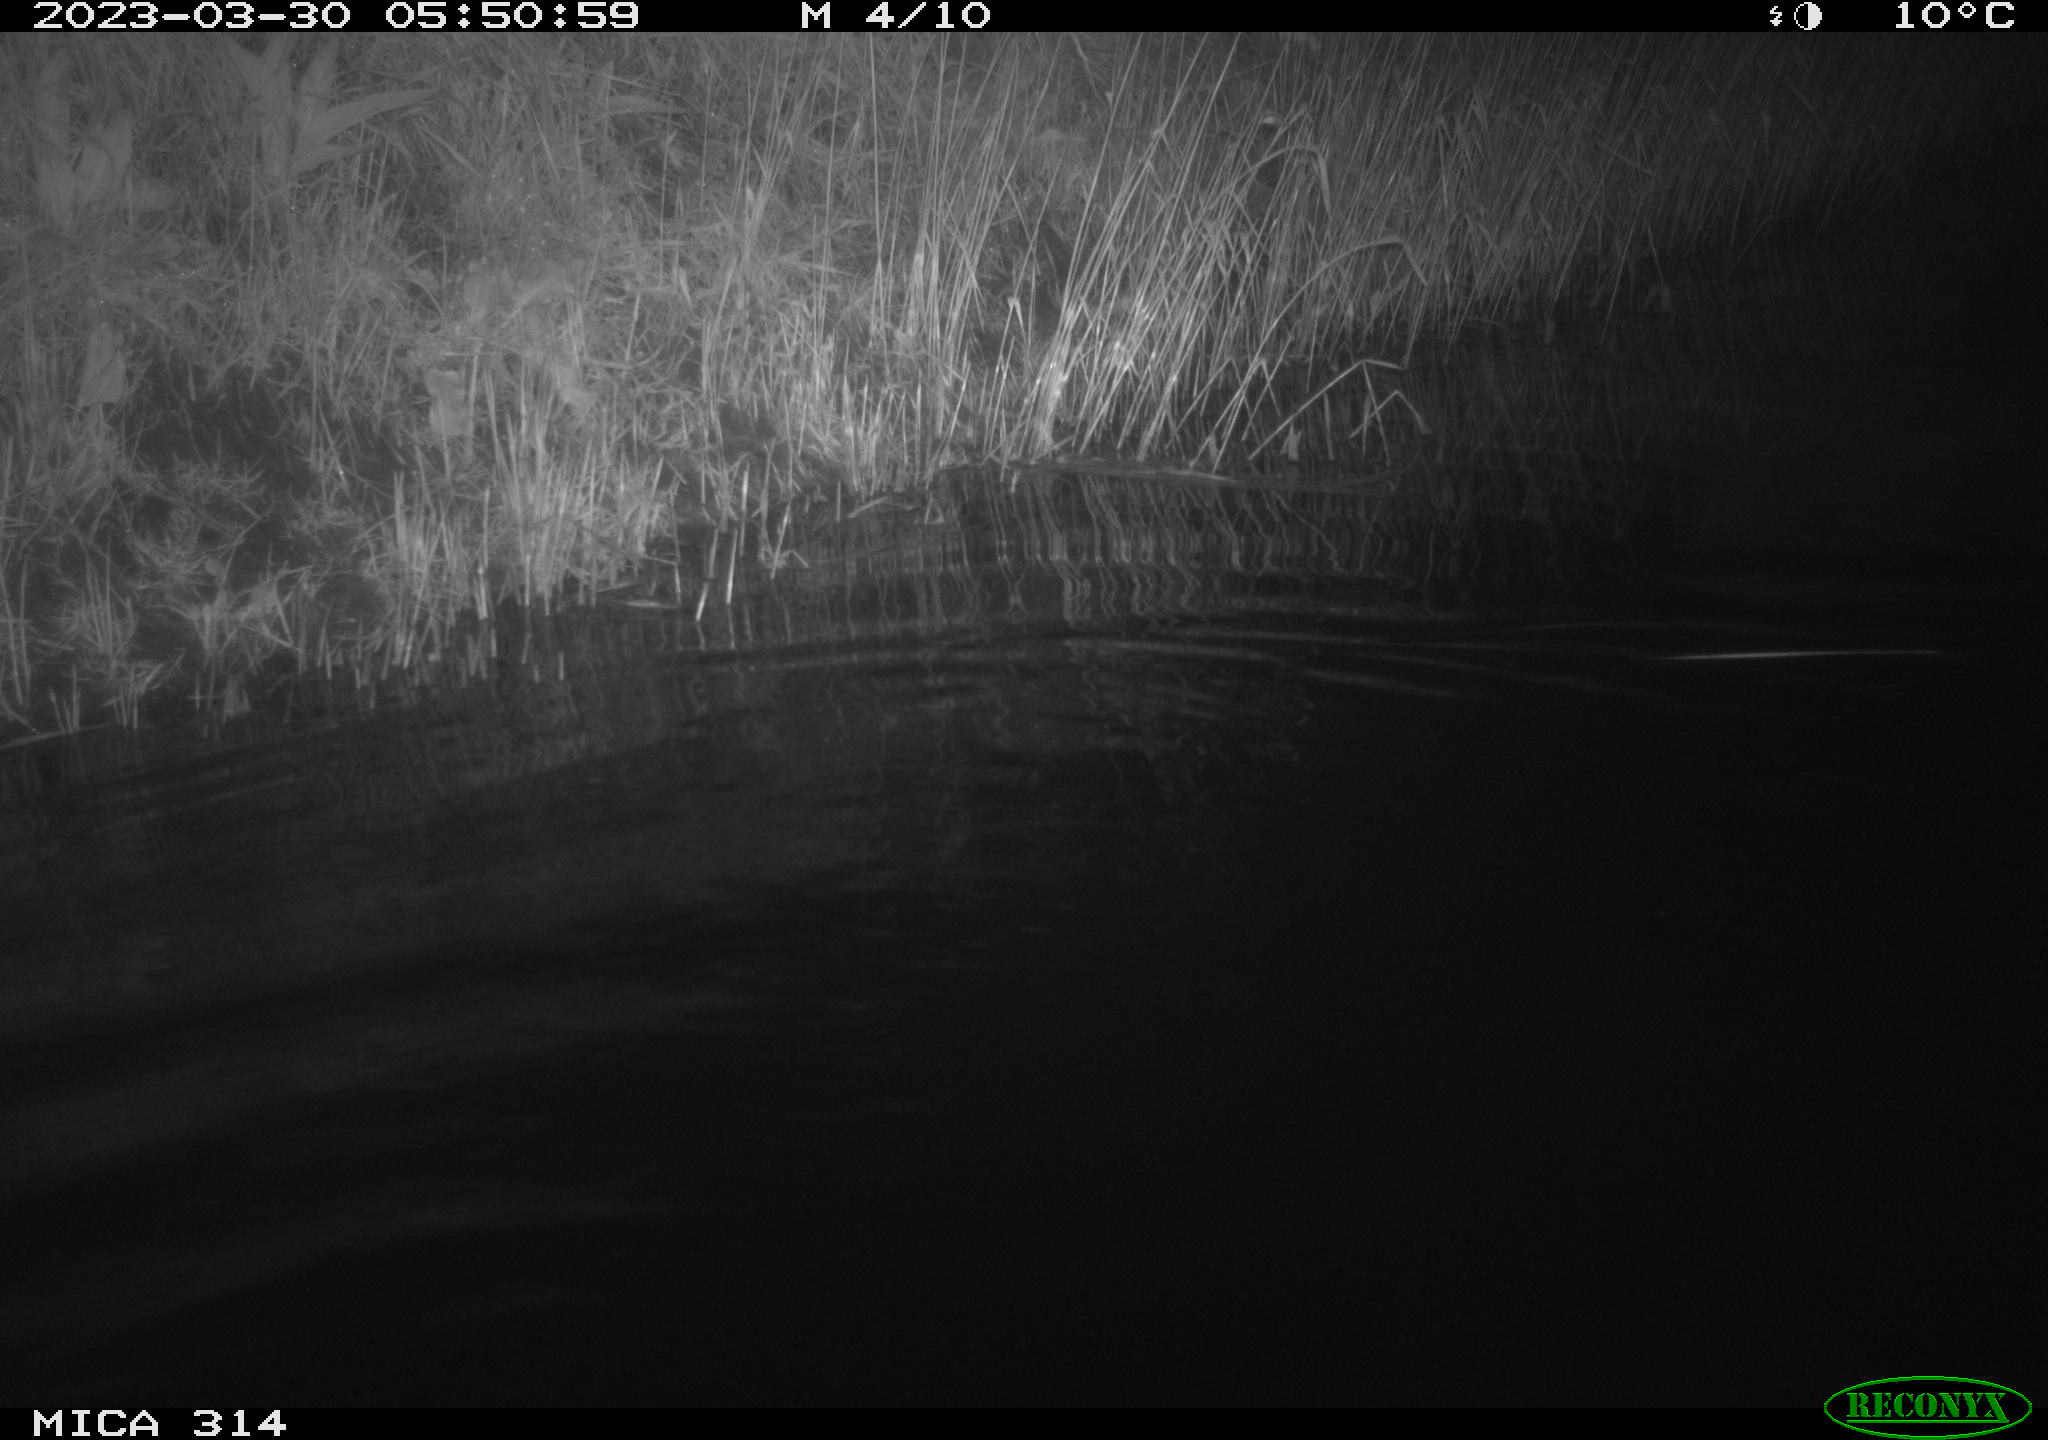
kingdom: Animalia
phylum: Chordata
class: Aves
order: Anseriformes
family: Anatidae
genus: Anas
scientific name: Anas
